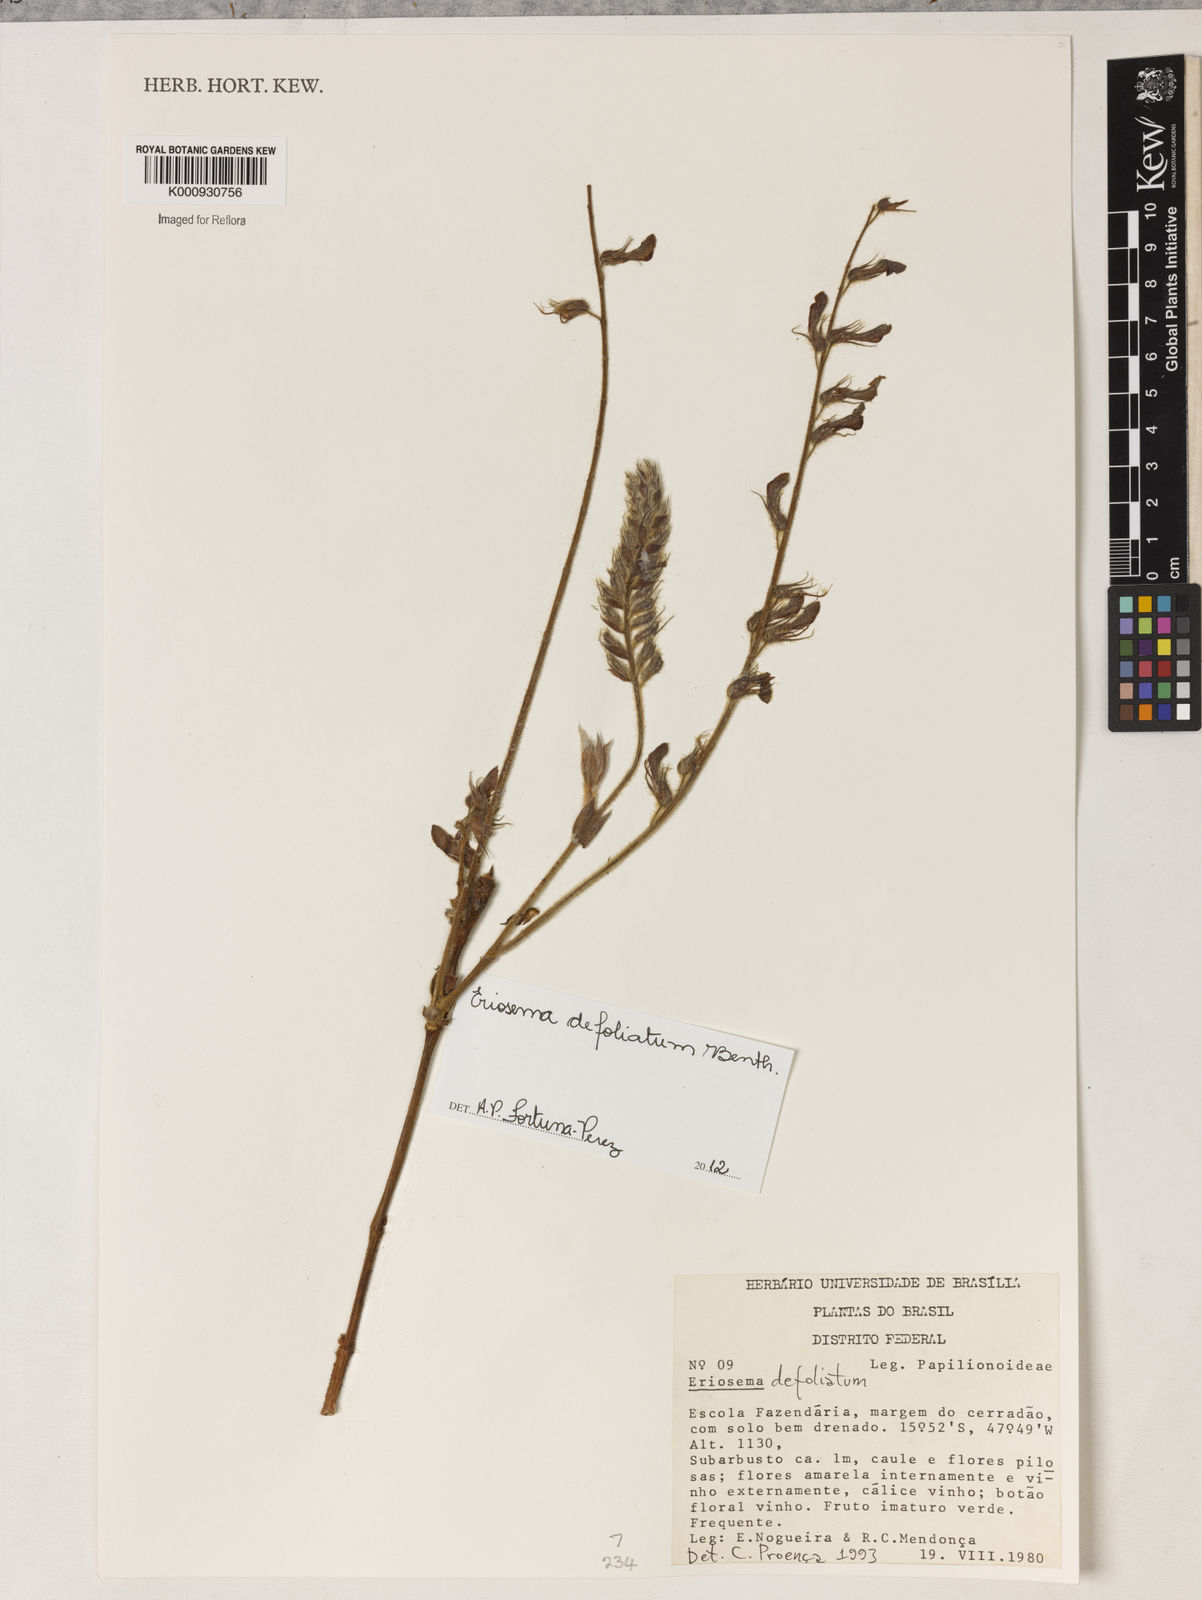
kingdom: Plantae
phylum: Tracheophyta
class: Magnoliopsida
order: Fabales
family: Fabaceae
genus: Eriosema
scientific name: Eriosema defoliatum
